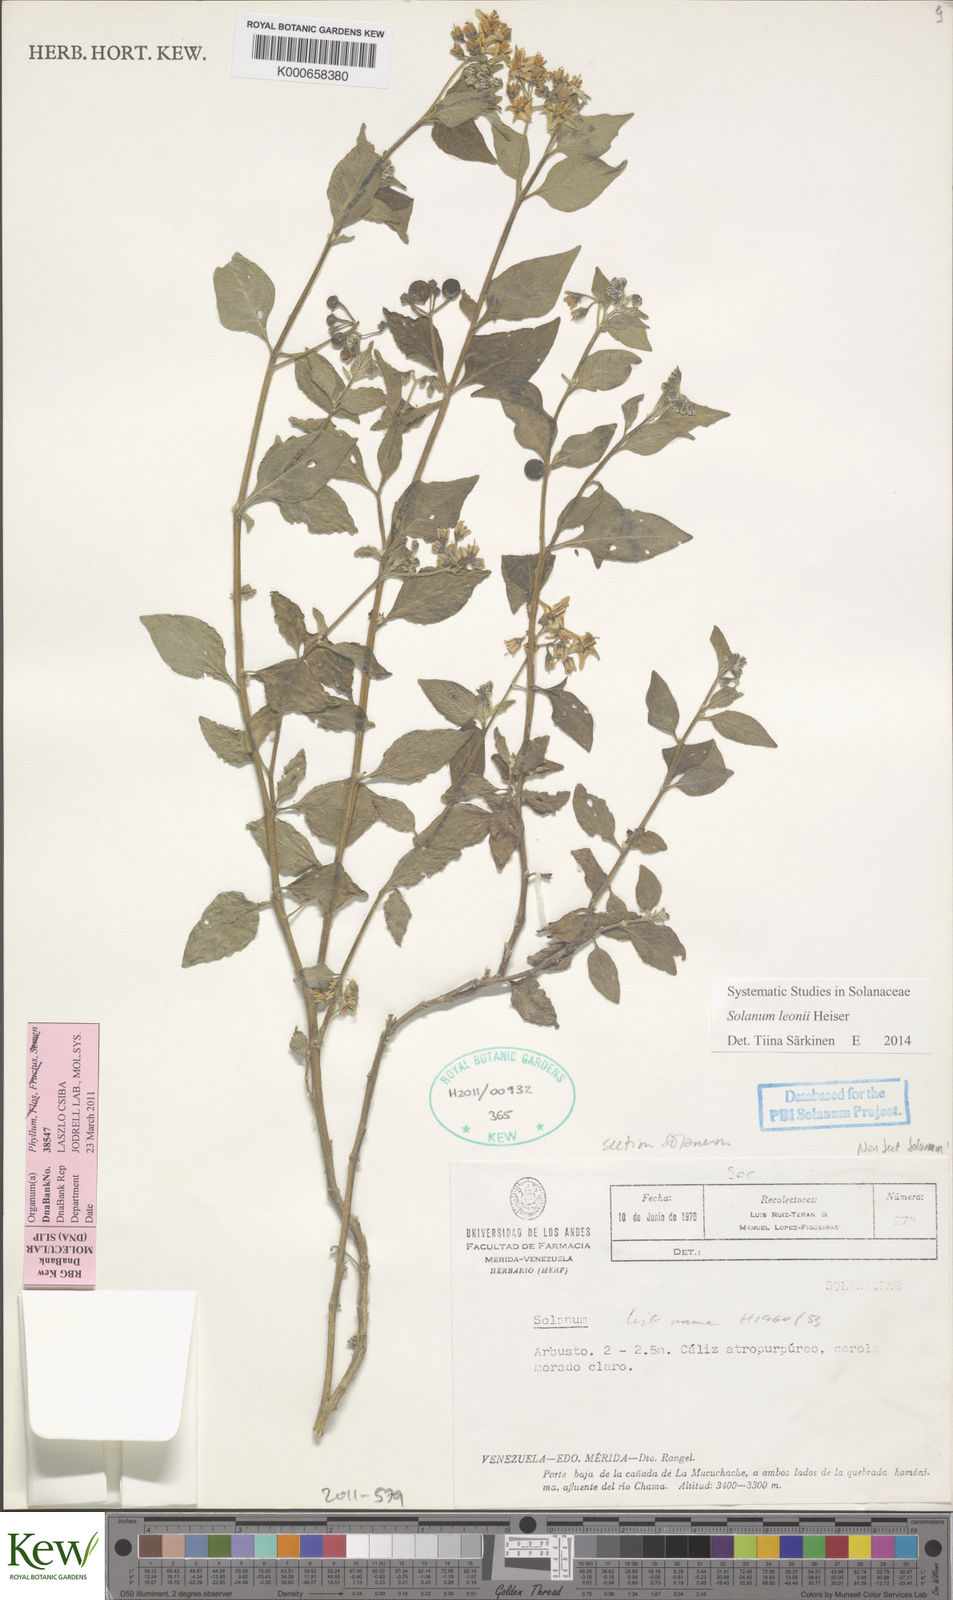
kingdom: Plantae
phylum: Tracheophyta
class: Magnoliopsida
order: Solanales
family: Solanaceae
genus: Solanum
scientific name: Solanum interandinum
